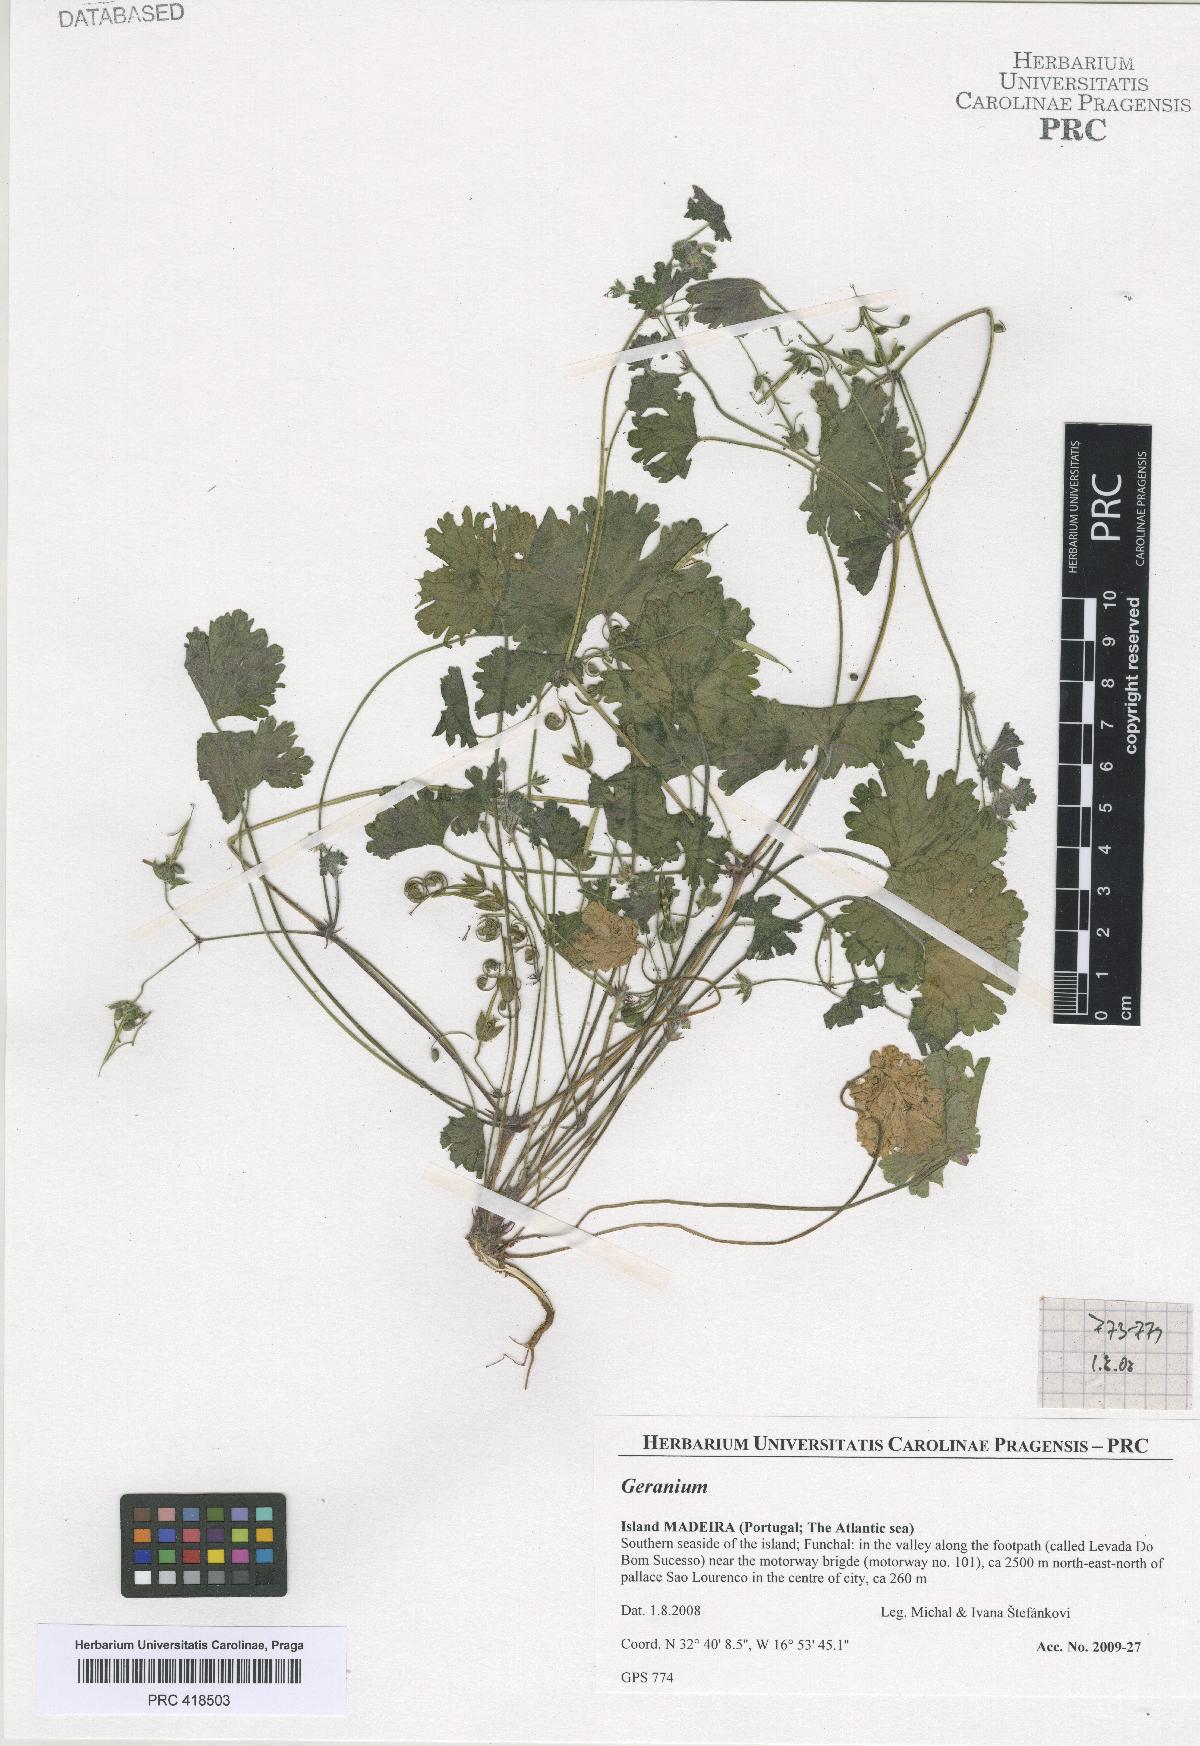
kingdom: Plantae
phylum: Tracheophyta
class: Magnoliopsida
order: Geraniales
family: Geraniaceae
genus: Geranium
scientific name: Geranium rotundifolium
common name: Round-leaved crane's-bill
